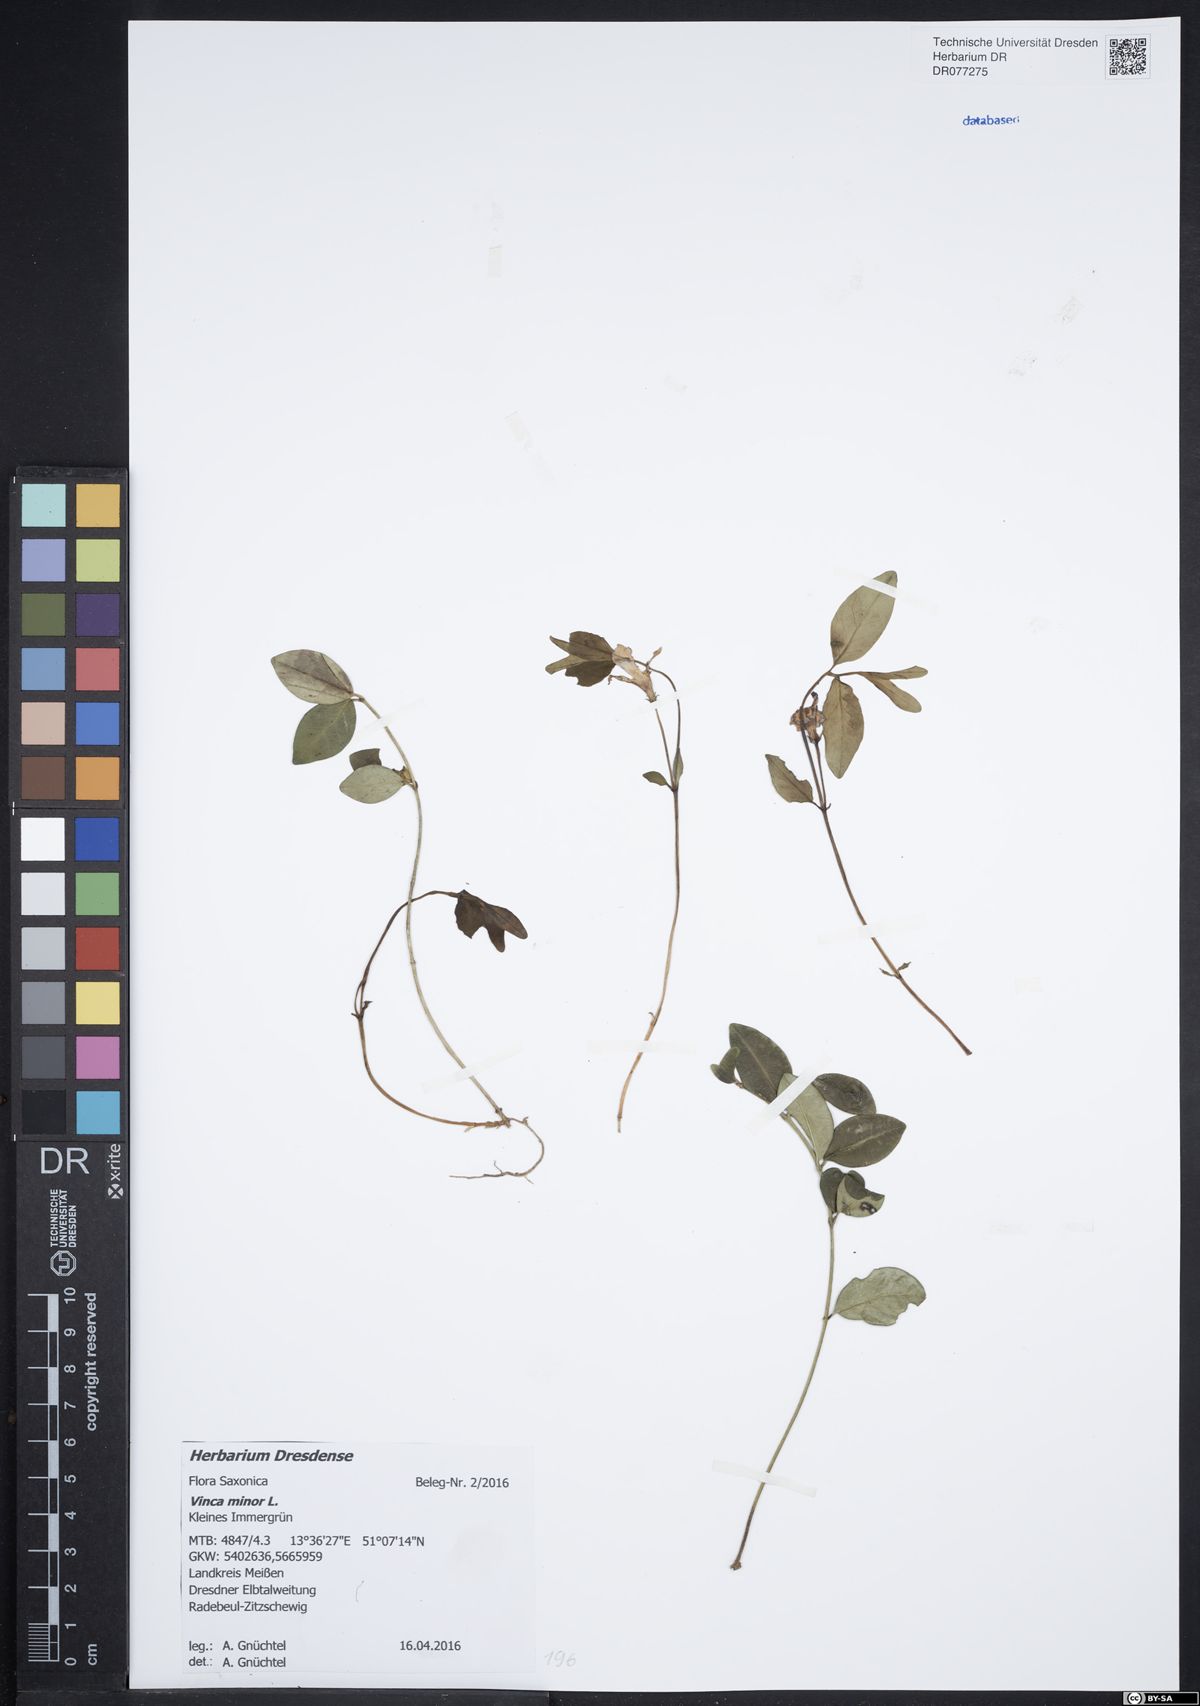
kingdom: Plantae
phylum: Tracheophyta
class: Magnoliopsida
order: Gentianales
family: Apocynaceae
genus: Vinca
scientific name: Vinca minor
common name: Lesser periwinkle
